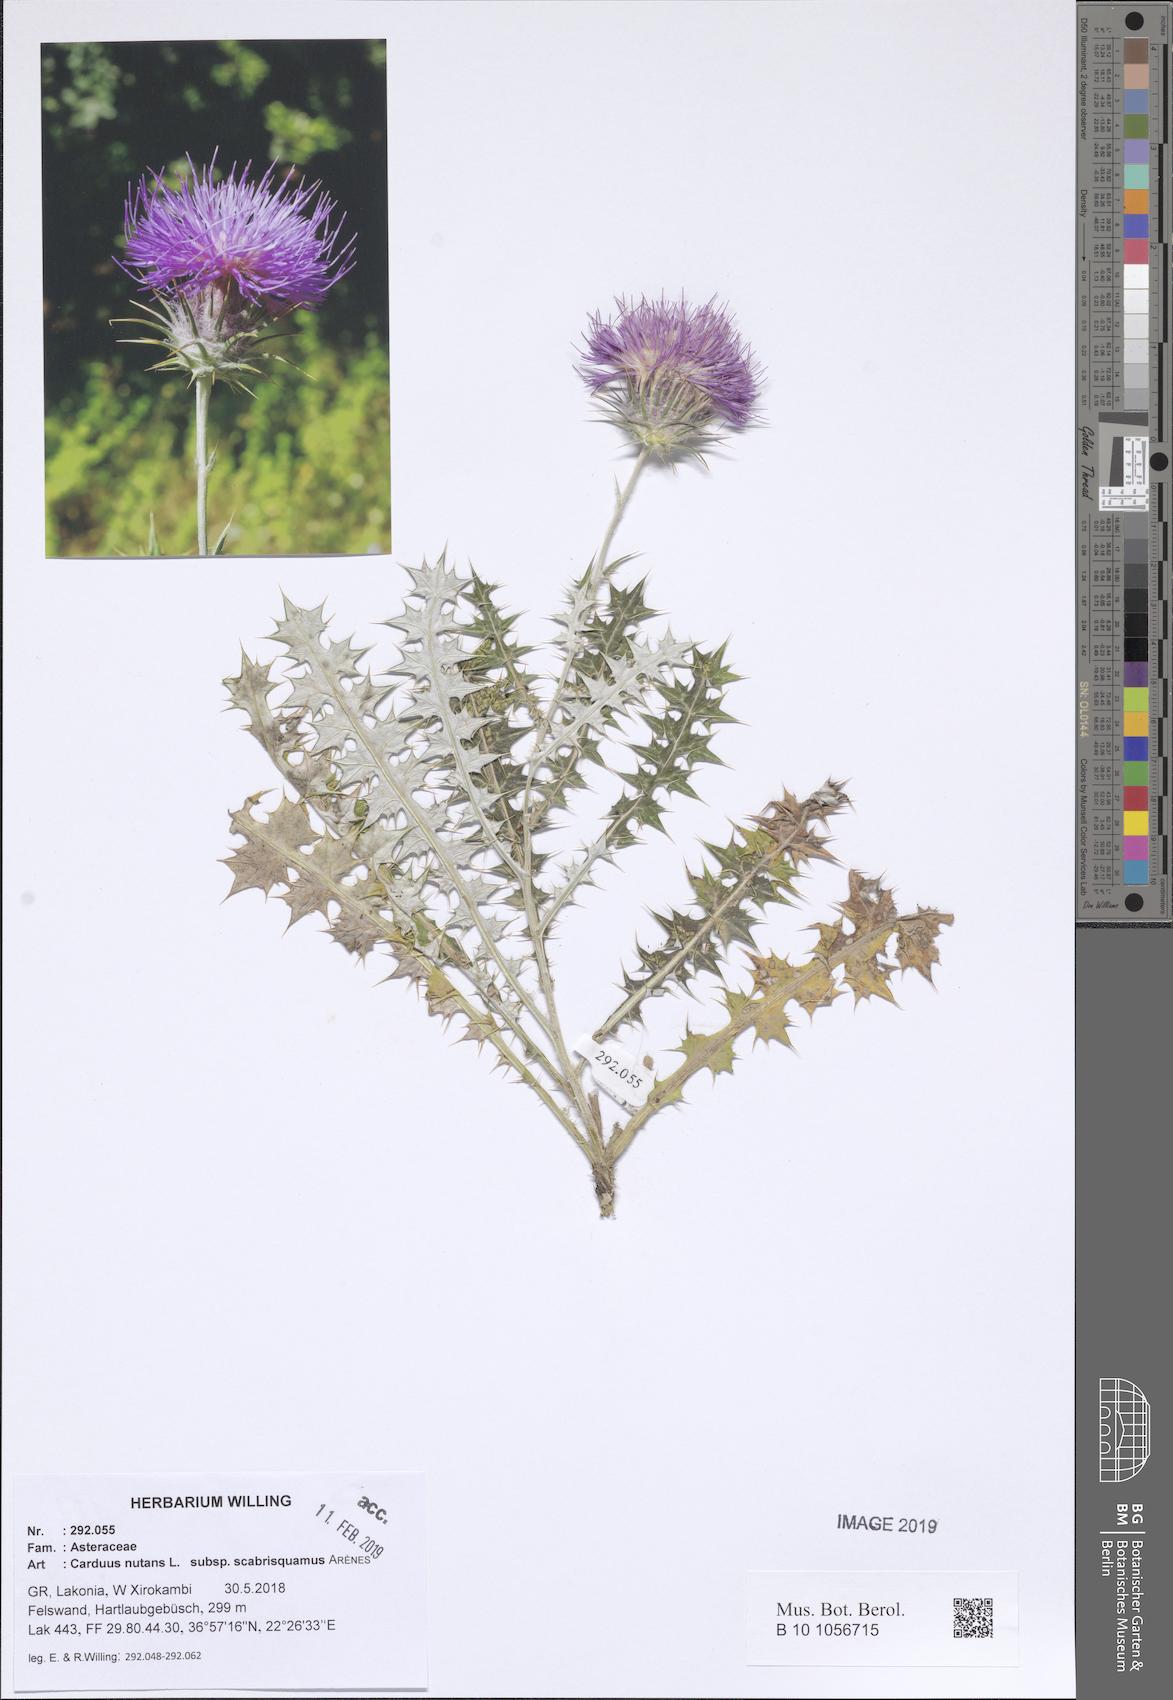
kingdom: Plantae
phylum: Tracheophyta
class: Magnoliopsida
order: Asterales
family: Asteraceae
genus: Carduus
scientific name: Carduus macrocephalus
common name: Giant thistle
